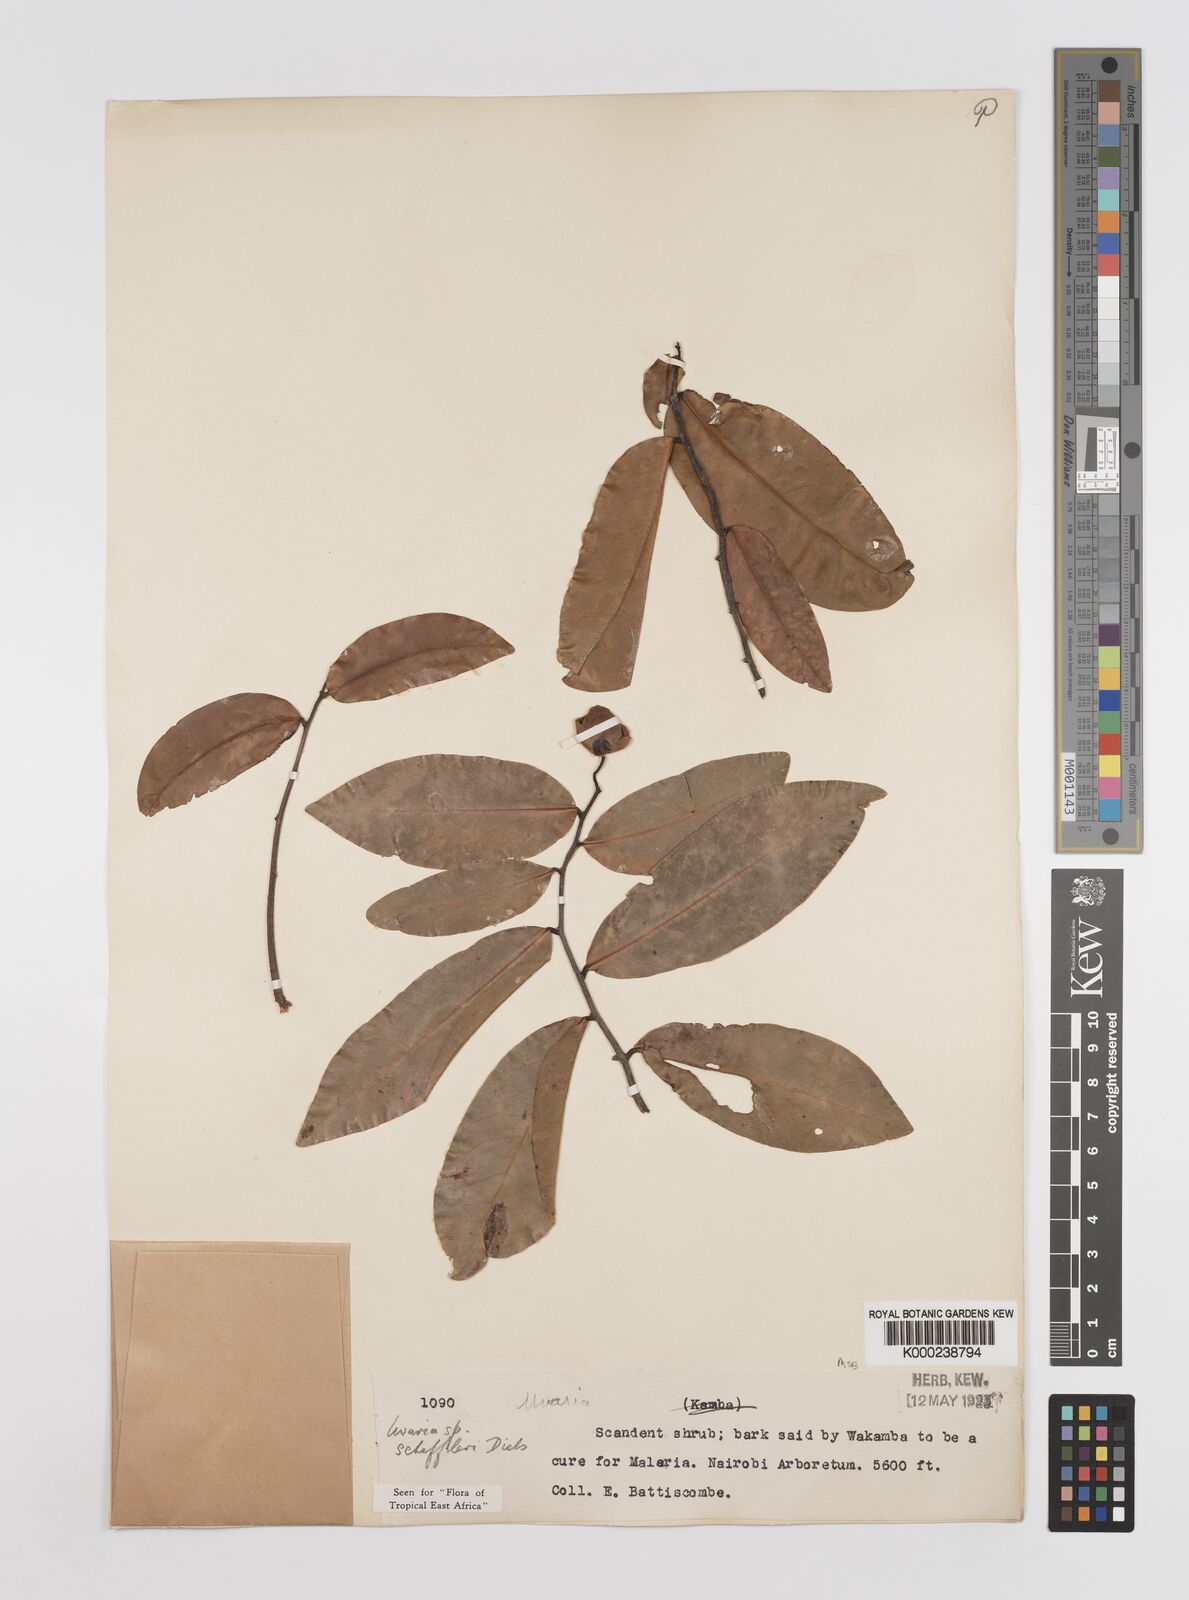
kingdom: Plantae
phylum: Tracheophyta
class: Magnoliopsida
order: Magnoliales
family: Annonaceae
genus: Uvaria
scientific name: Uvaria scheffleri
